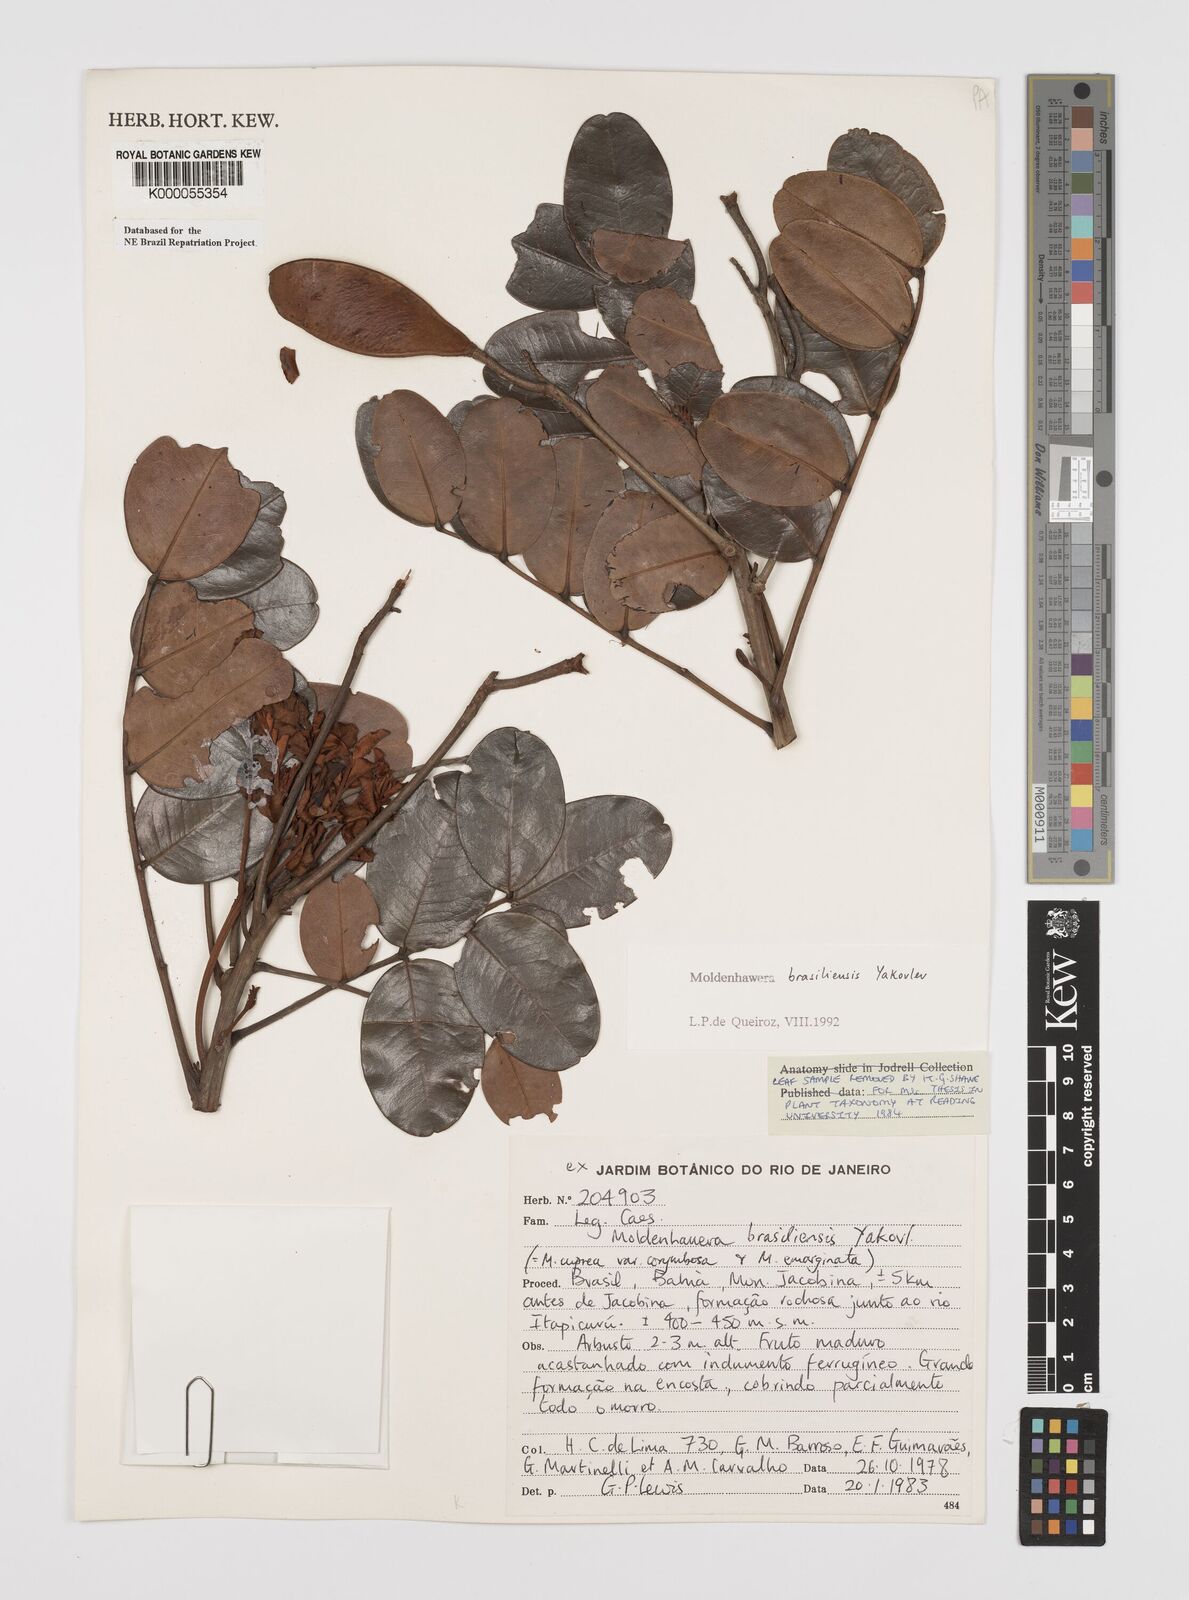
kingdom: Plantae
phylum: Tracheophyta
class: Magnoliopsida
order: Fabales
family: Fabaceae
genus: Moldenhawera
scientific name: Moldenhawera brasiliensis
